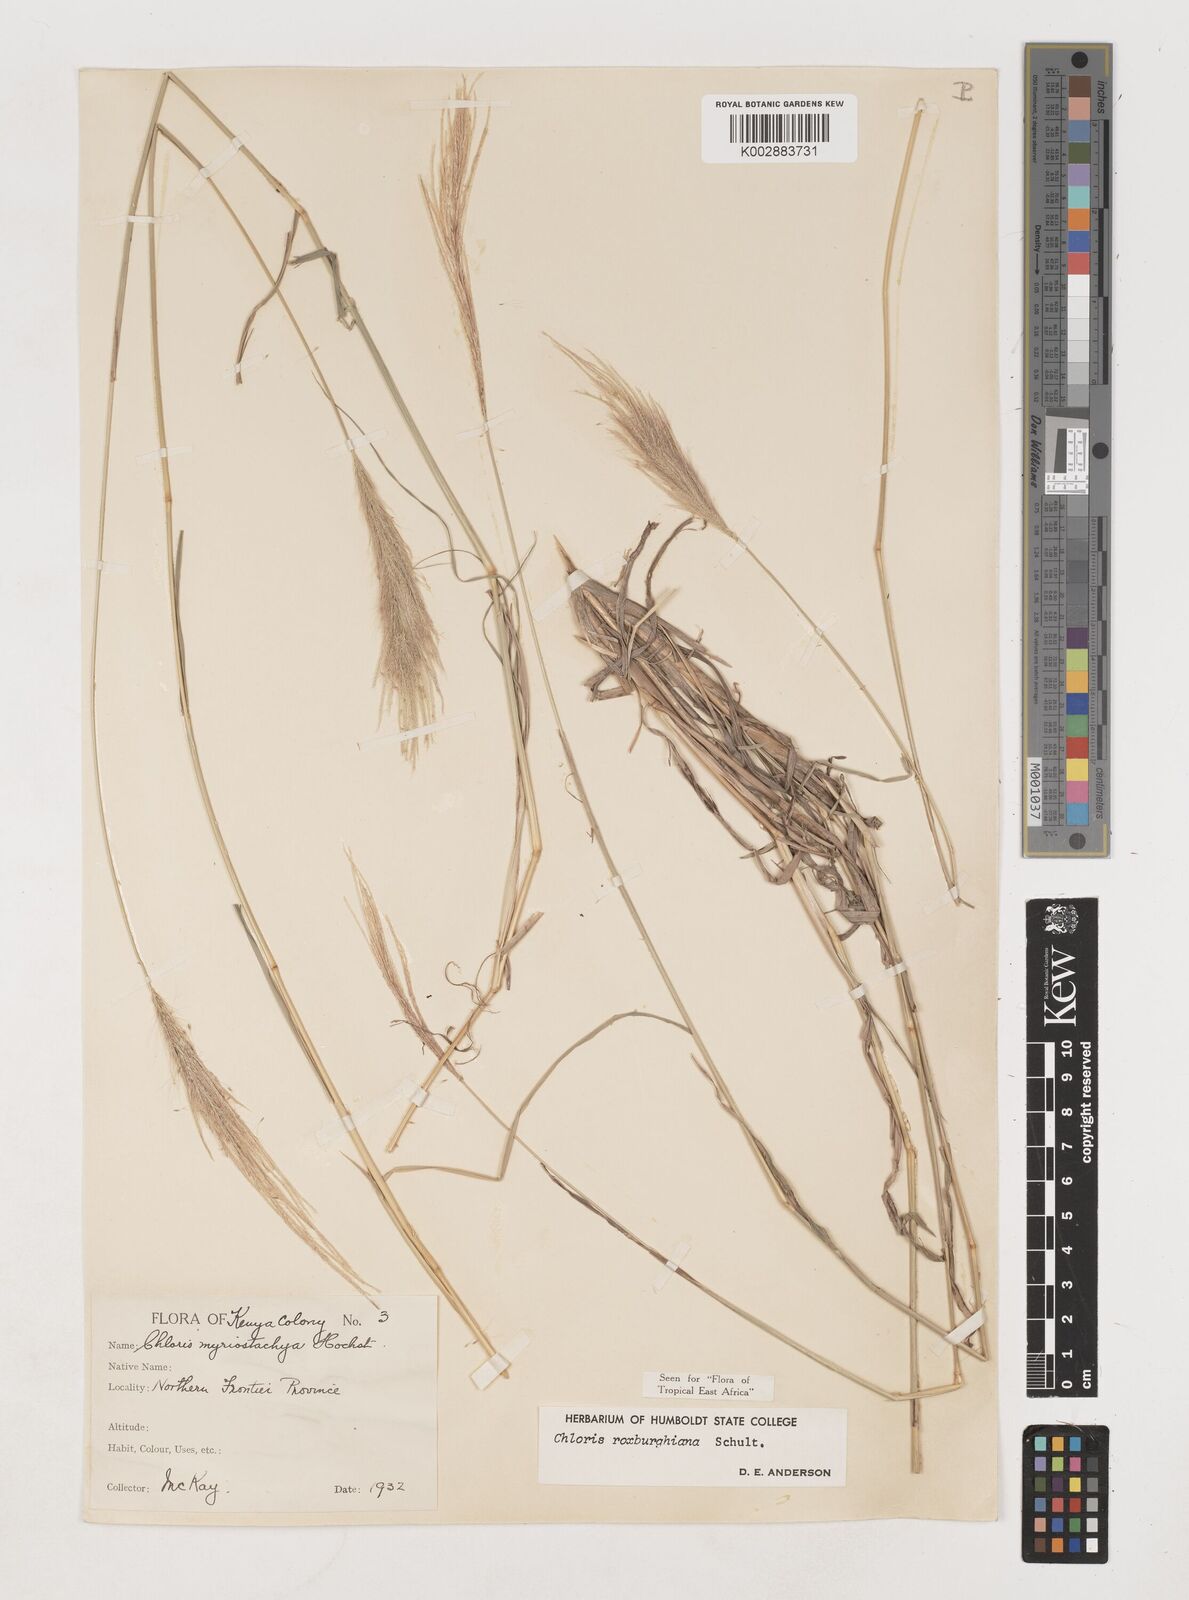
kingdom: Plantae
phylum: Tracheophyta
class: Liliopsida
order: Poales
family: Poaceae
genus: Tetrapogon
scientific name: Tetrapogon roxburghiana
